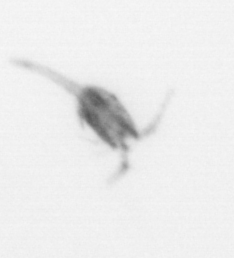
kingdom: Animalia
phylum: Arthropoda
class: Copepoda
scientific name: Copepoda
